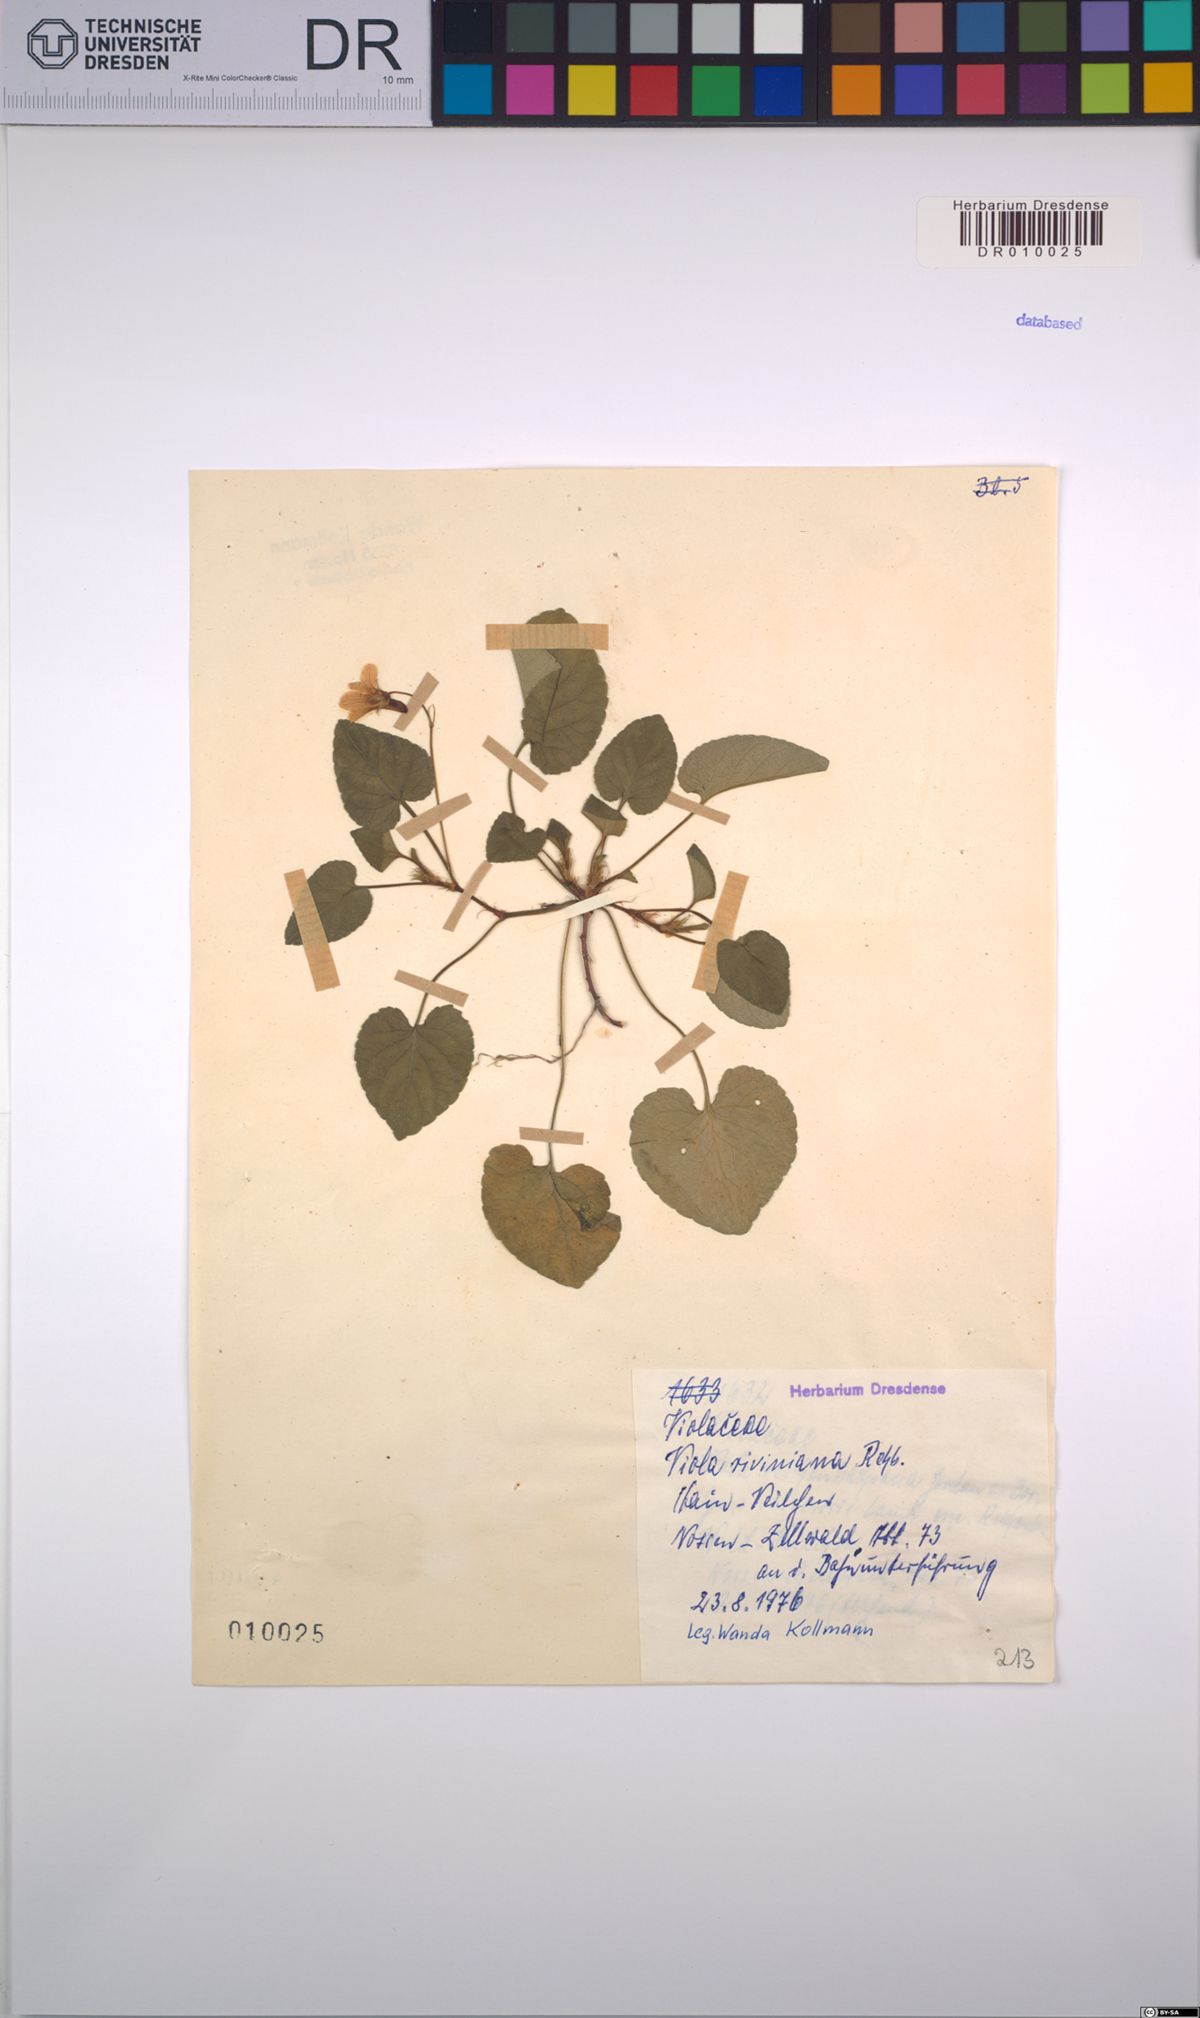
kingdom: Plantae
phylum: Tracheophyta
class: Magnoliopsida
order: Malpighiales
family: Violaceae
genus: Viola
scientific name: Viola riviniana
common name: Common dog-violet
